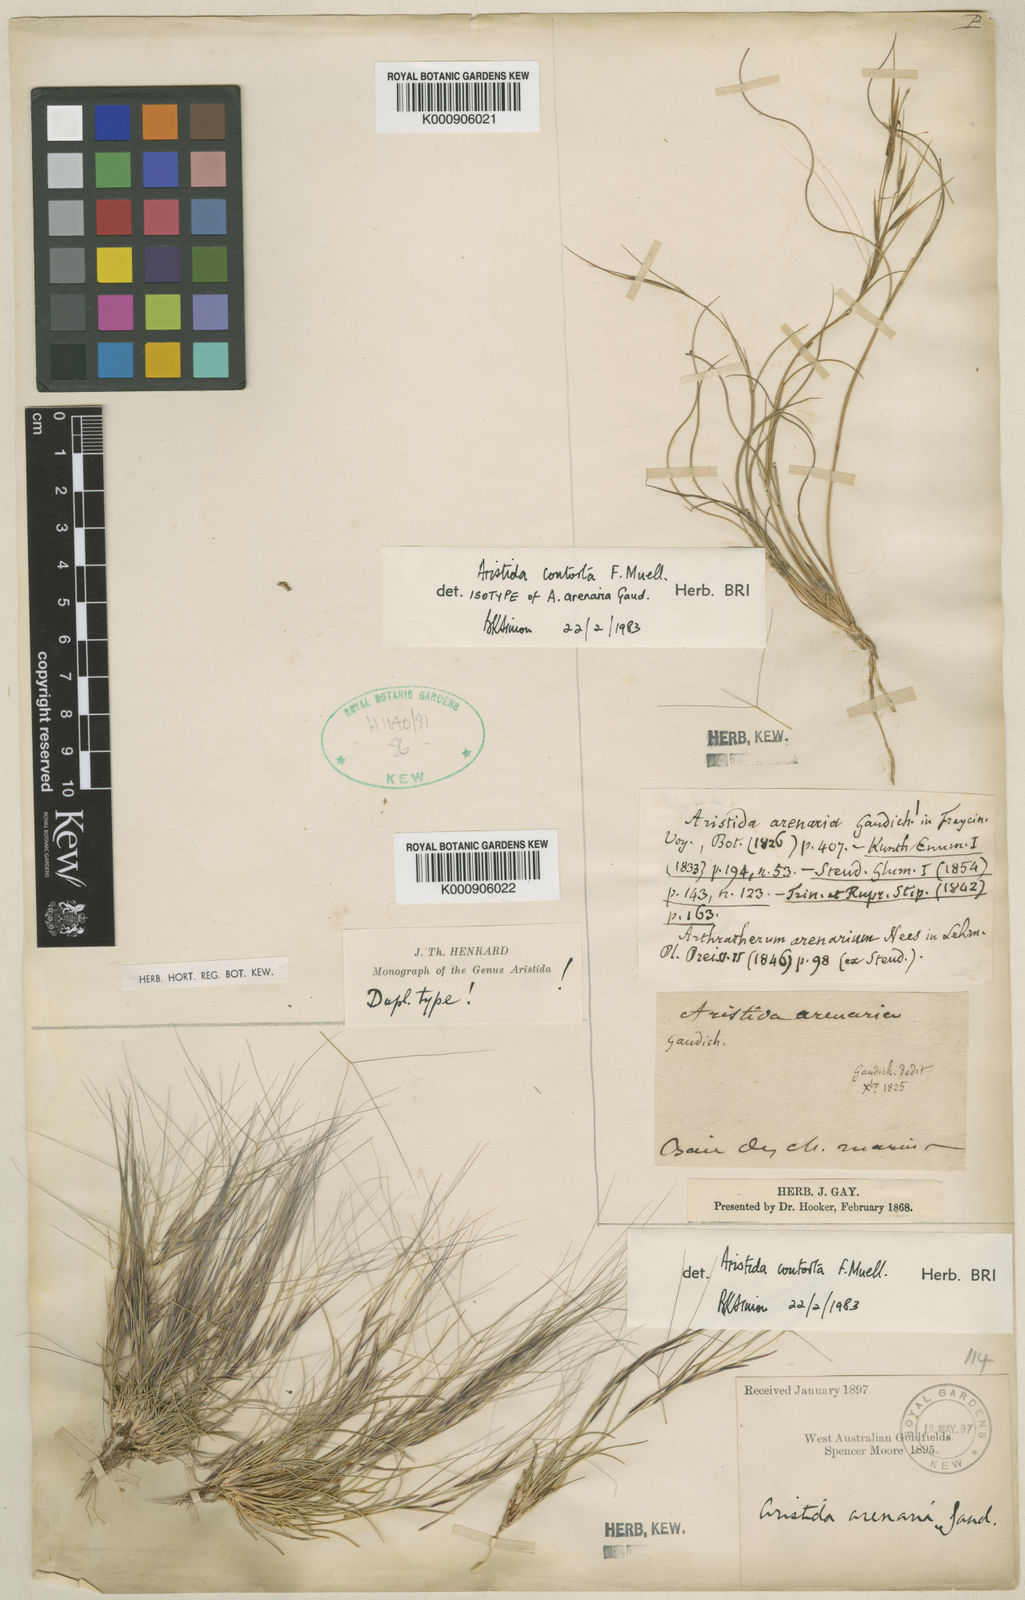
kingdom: Plantae
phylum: Tracheophyta
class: Liliopsida
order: Poales
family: Poaceae
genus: Aristida
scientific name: Aristida contorta
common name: Bunch kerosene grass
